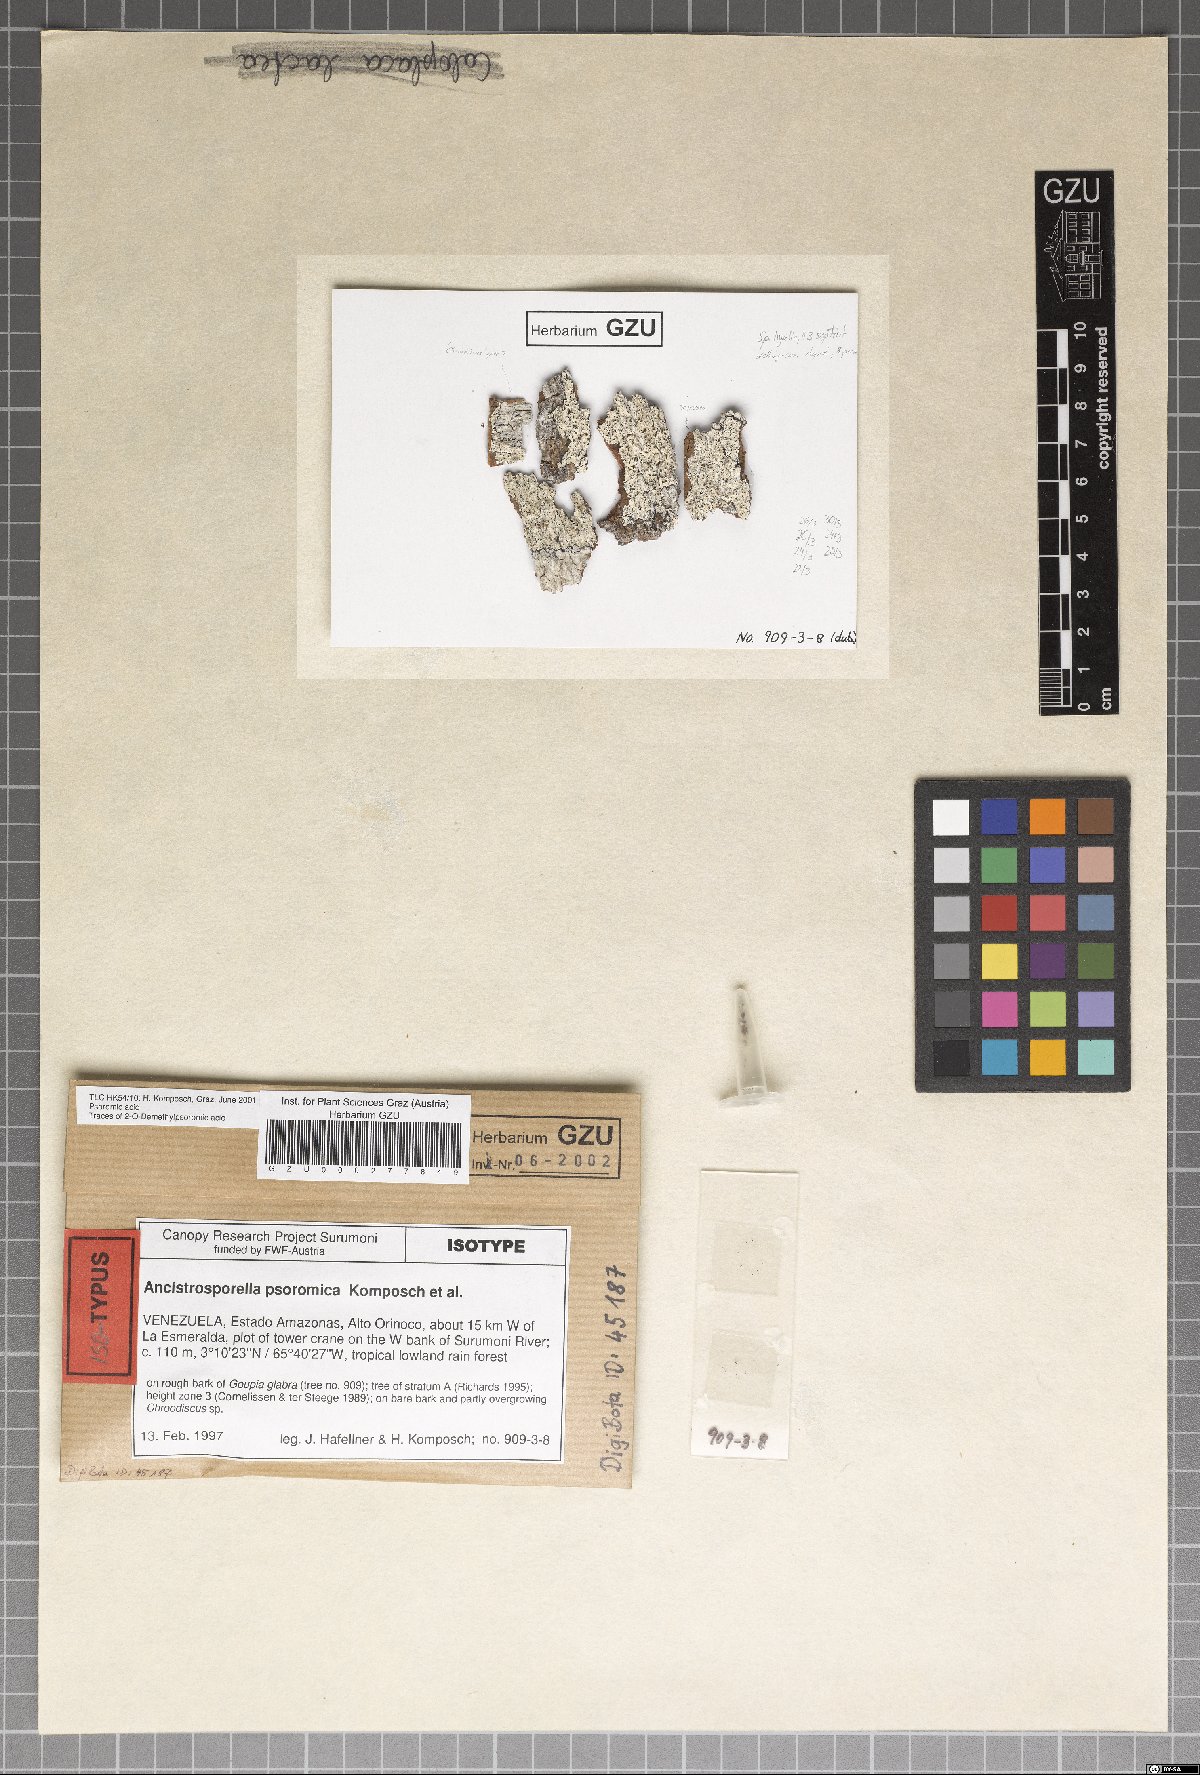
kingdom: Fungi
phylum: Ascomycota
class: Arthoniomycetes
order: Arthoniales
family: Roccellaceae
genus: Ancistrosporella
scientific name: Ancistrosporella psoromica
